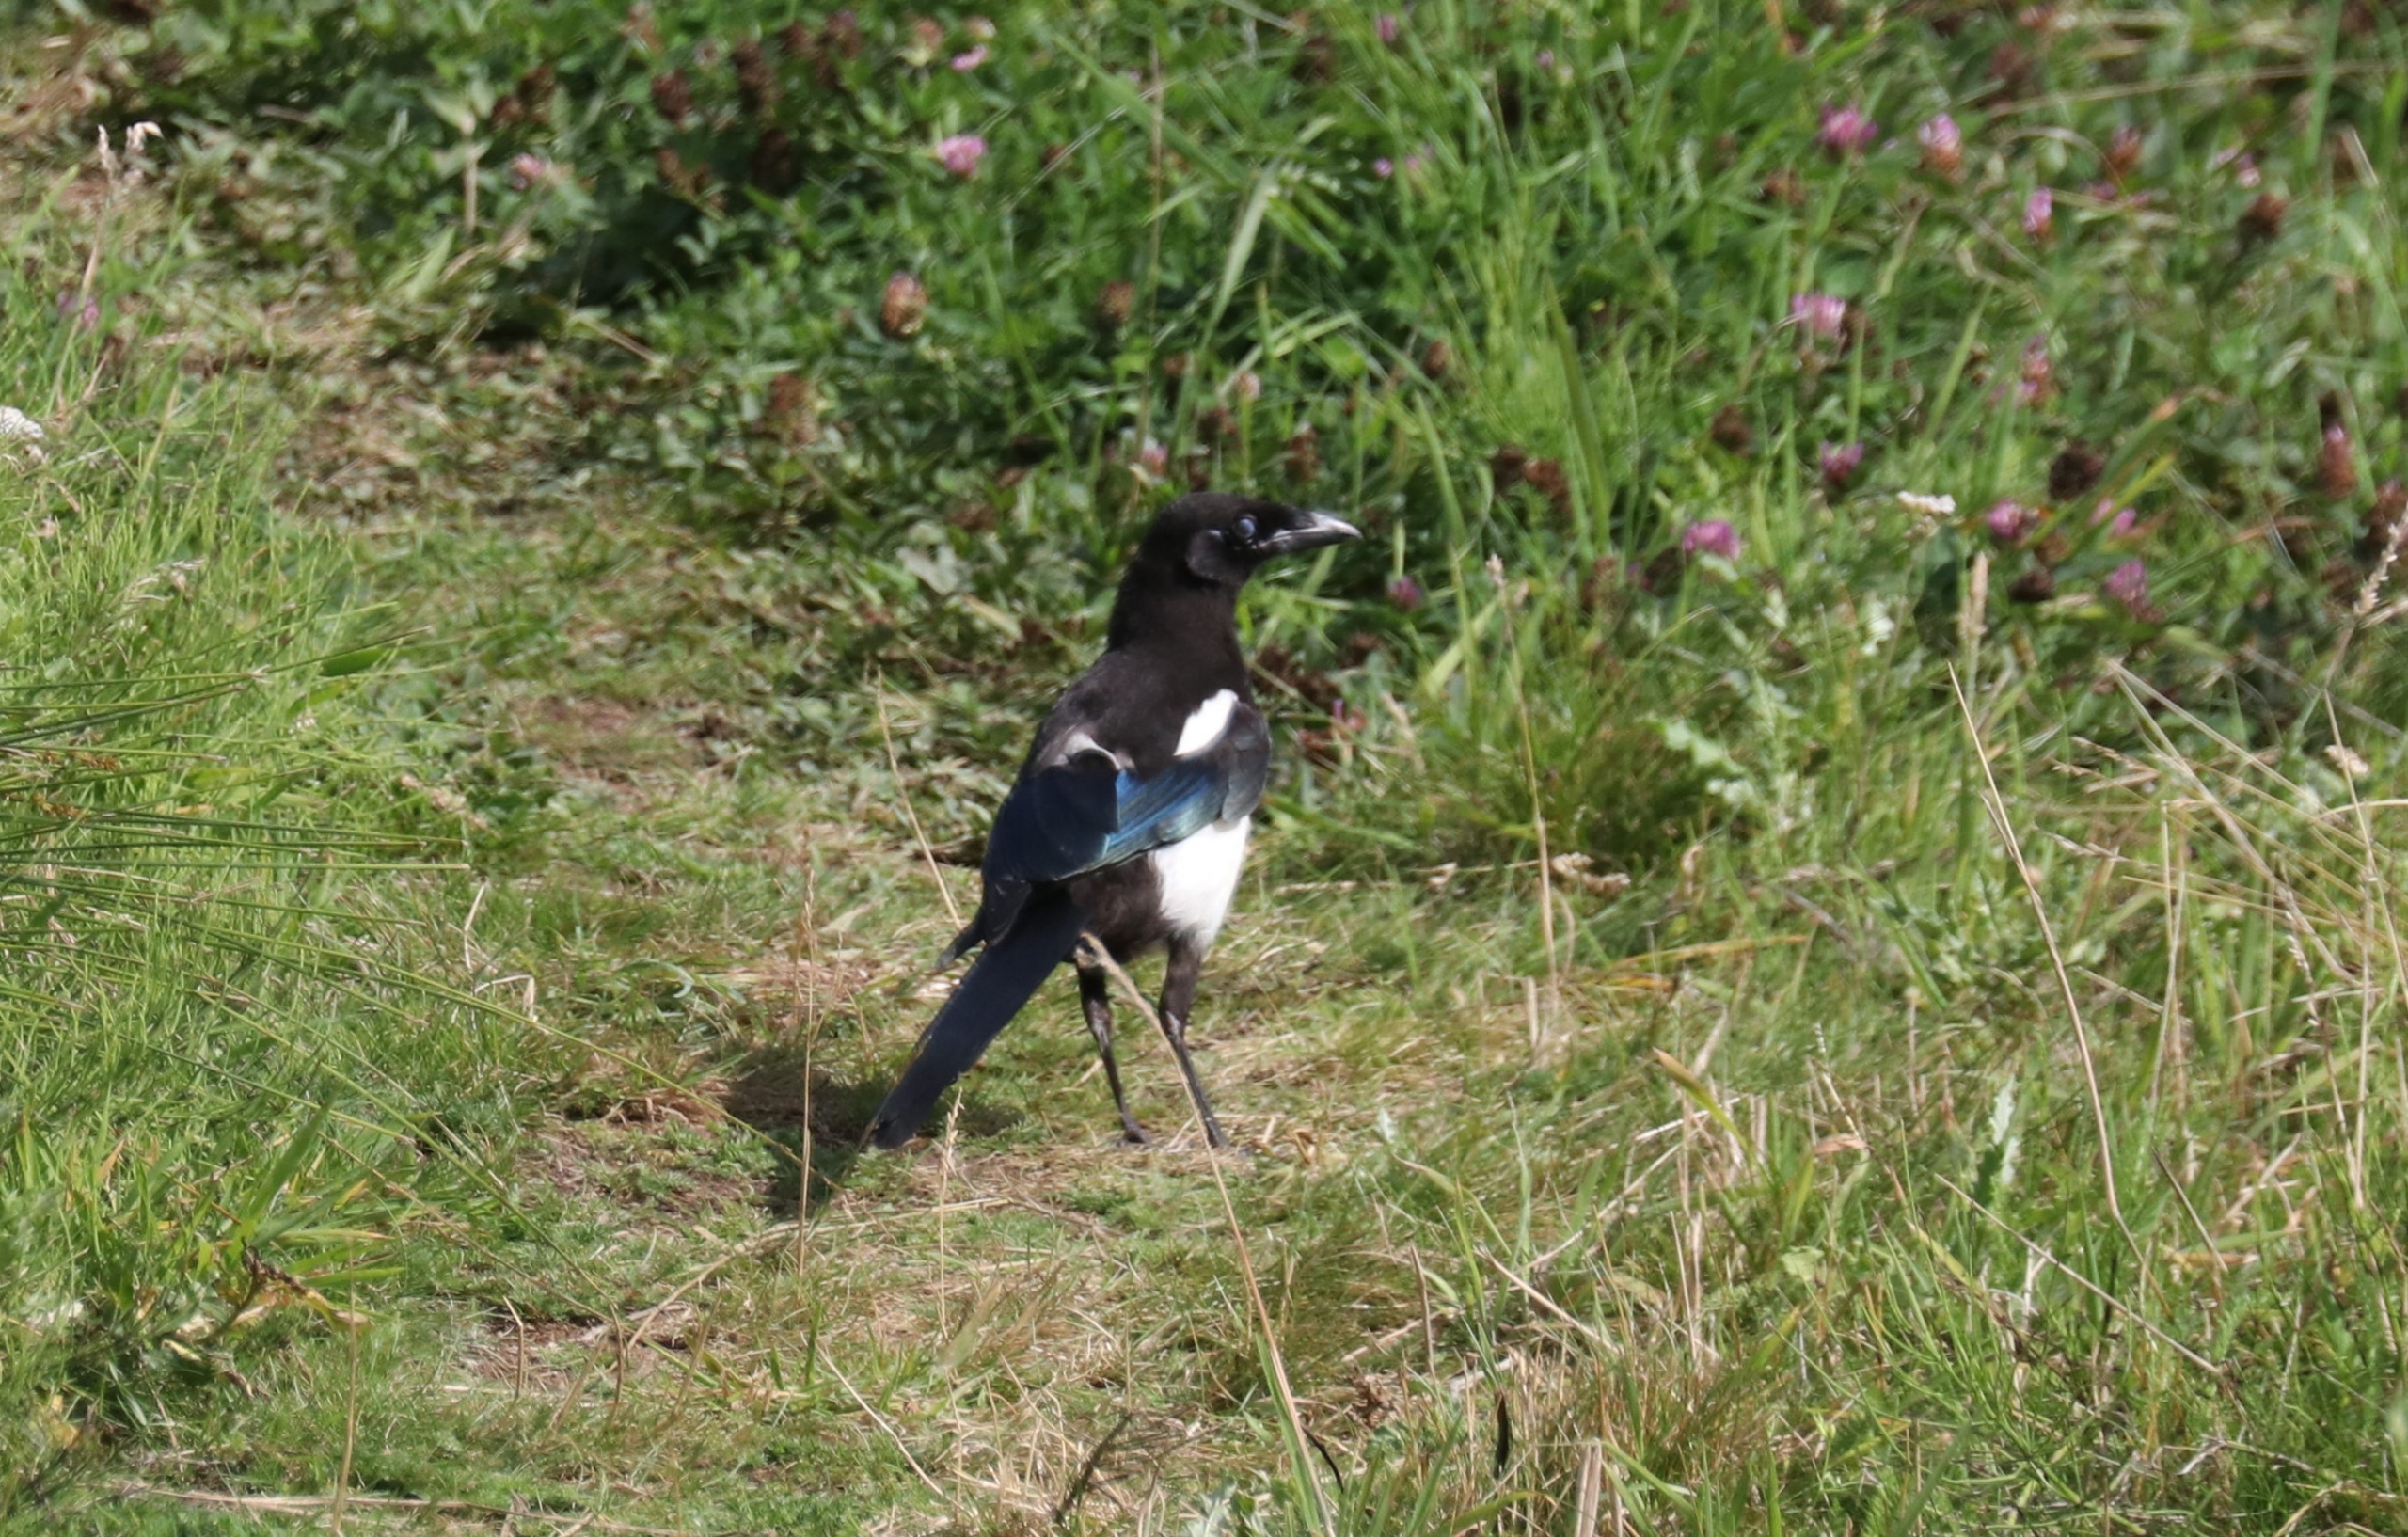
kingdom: Animalia
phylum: Chordata
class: Aves
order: Passeriformes
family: Corvidae
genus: Pica
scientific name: Pica pica
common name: Husskade
